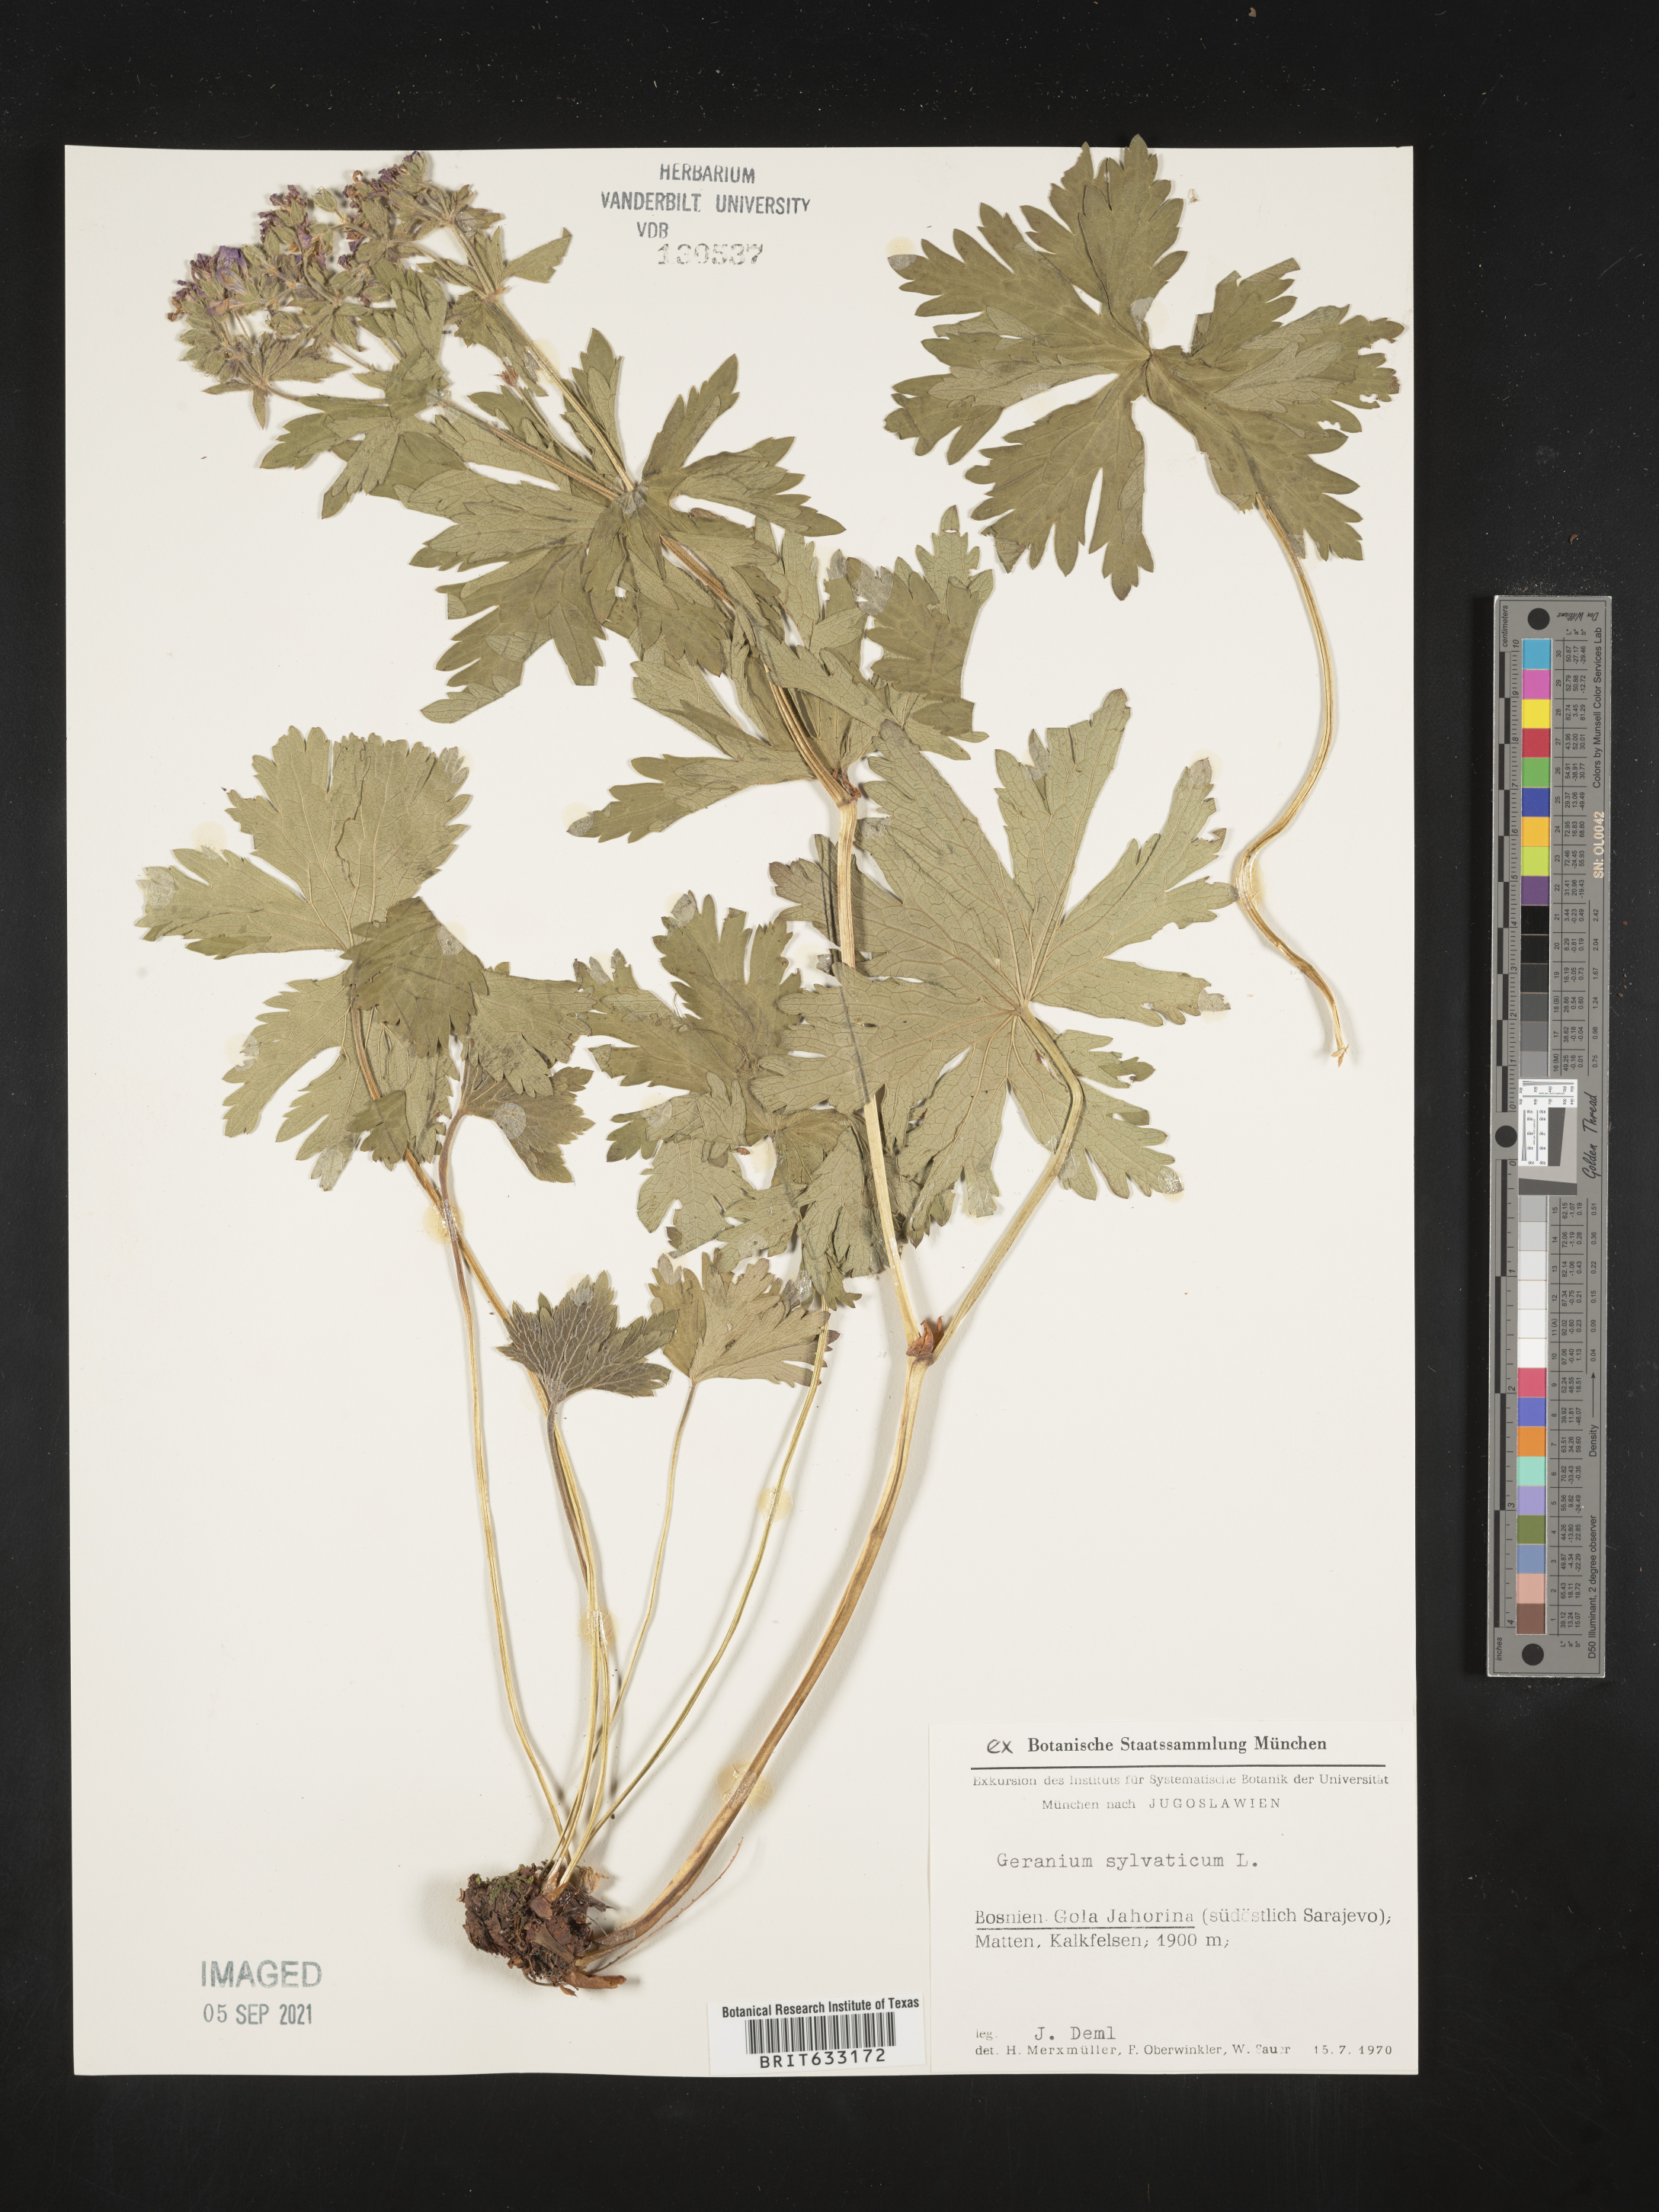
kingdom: Plantae
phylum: Tracheophyta
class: Magnoliopsida
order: Geraniales
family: Geraniaceae
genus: Geranium
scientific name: Geranium
